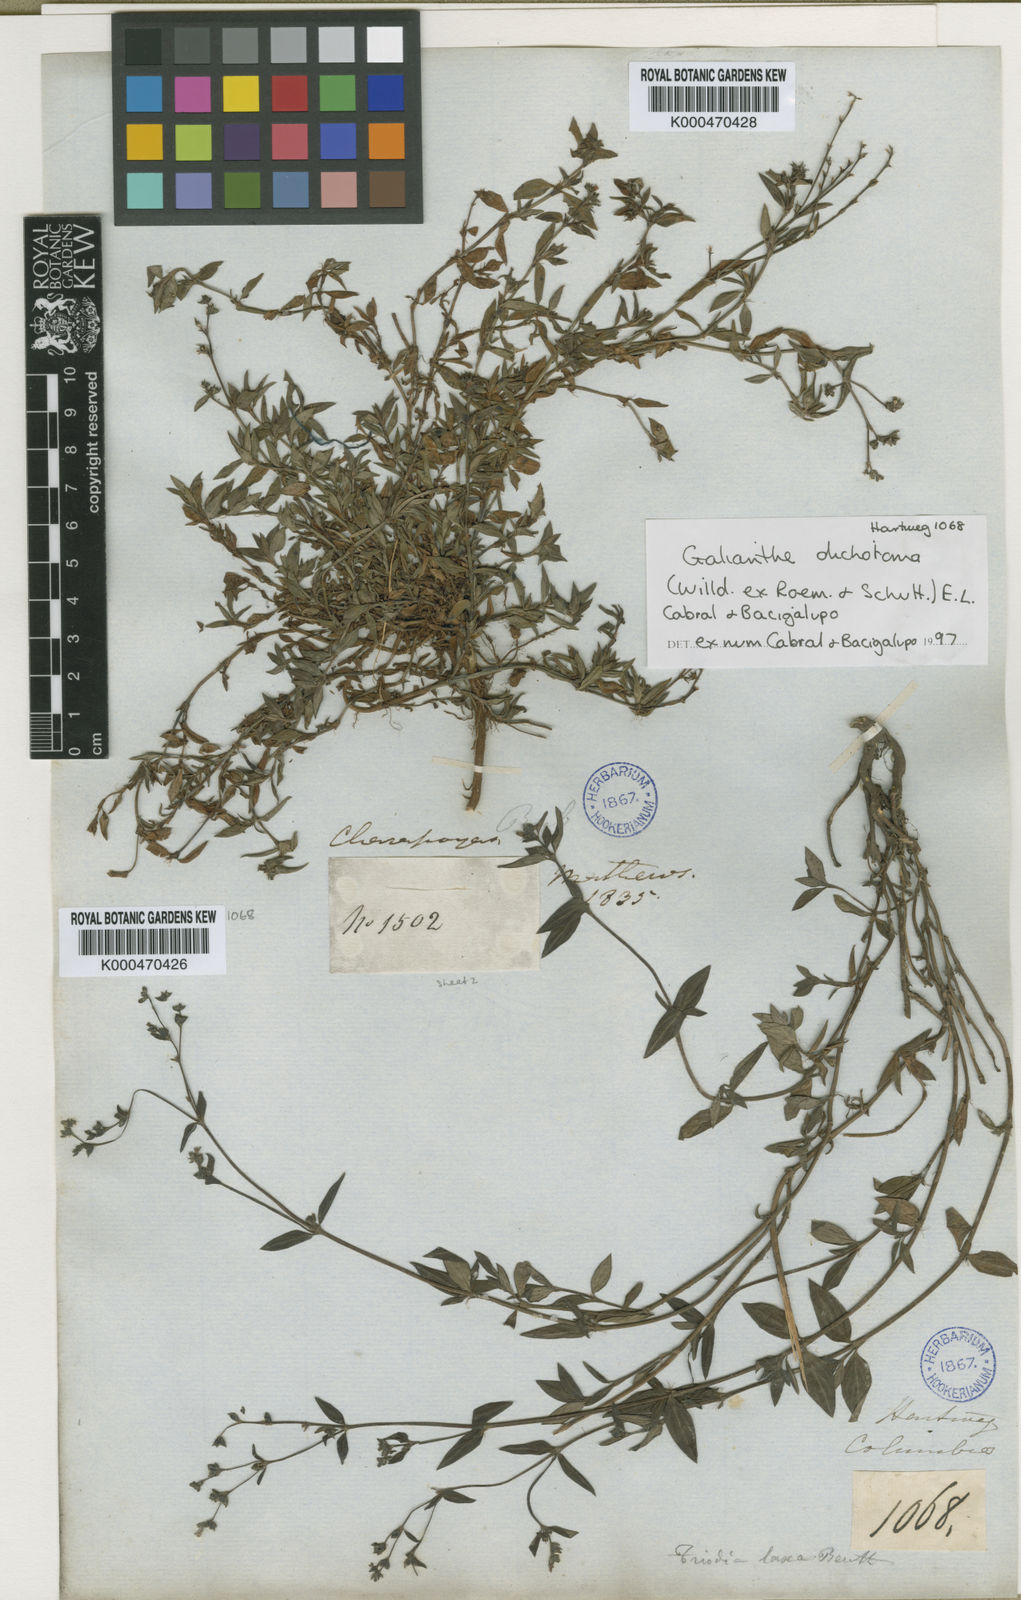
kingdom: Plantae
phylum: Tracheophyta
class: Magnoliopsida
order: Gentianales
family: Rubiaceae
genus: Galianthe
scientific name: Galianthe dichotoma
